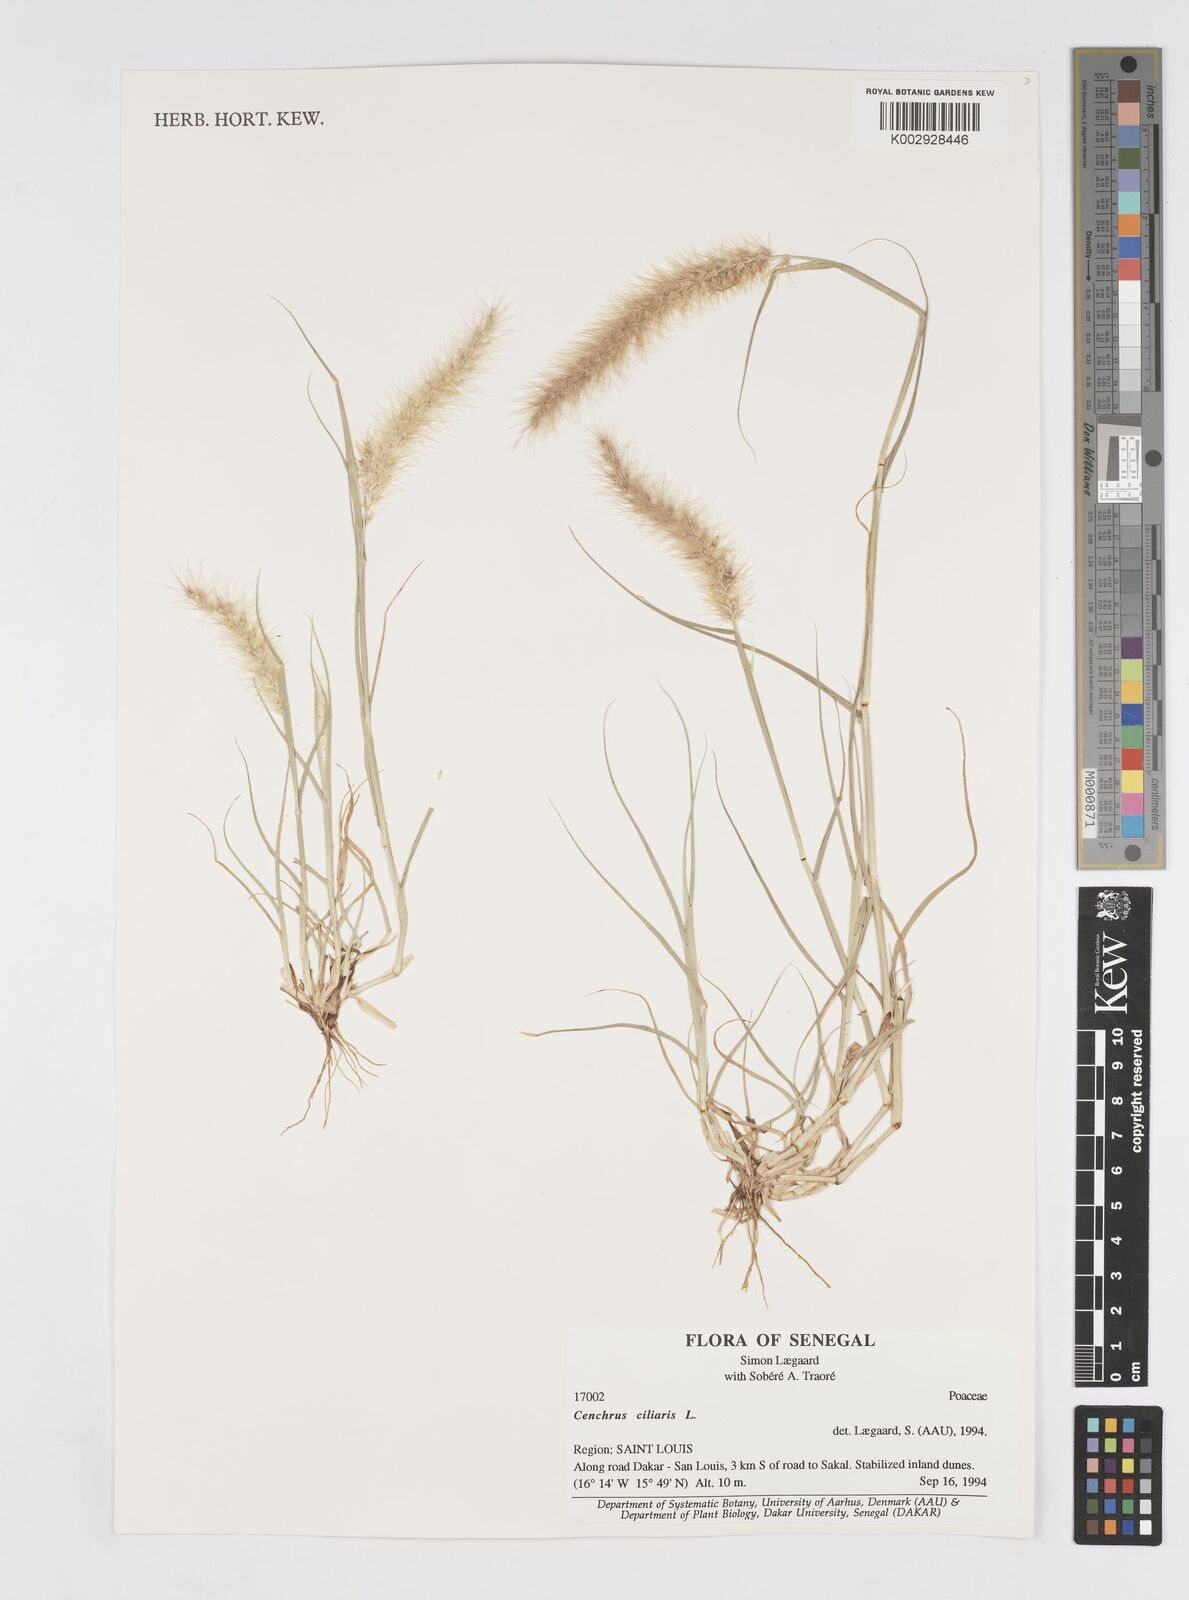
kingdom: Plantae
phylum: Tracheophyta
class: Liliopsida
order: Poales
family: Poaceae
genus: Cenchrus
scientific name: Cenchrus ciliaris
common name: Buffelgrass
